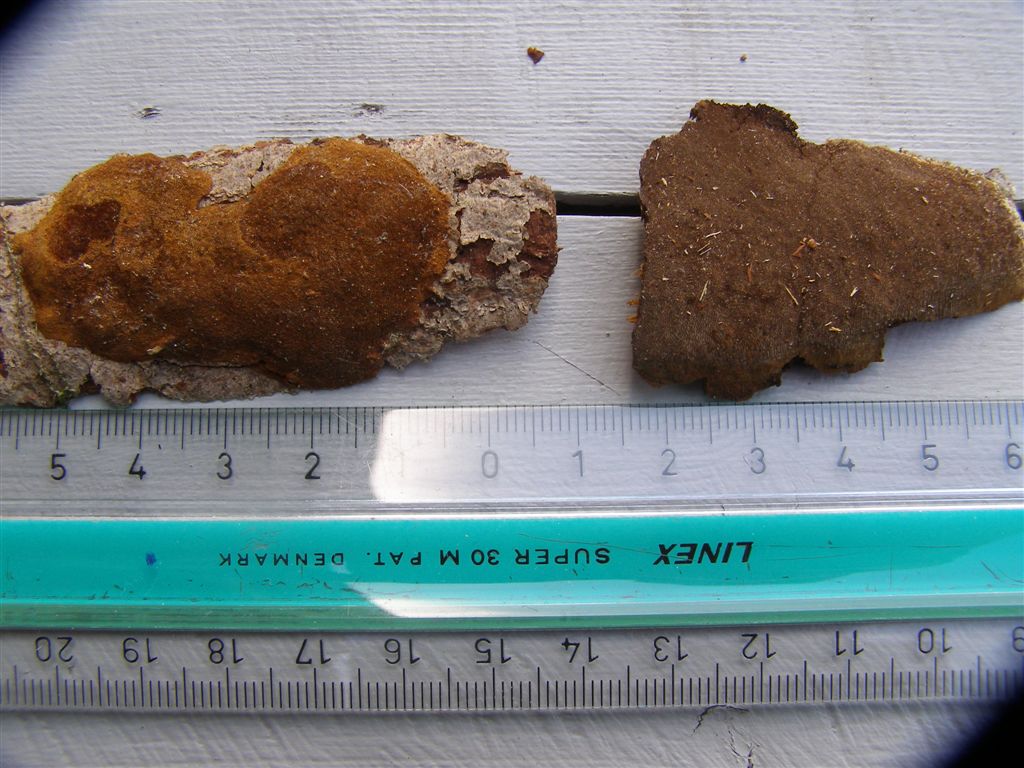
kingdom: Fungi
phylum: Basidiomycota
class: Agaricomycetes
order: Polyporales
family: Steccherinaceae
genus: Antrodiella
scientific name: Antrodiella faginea
